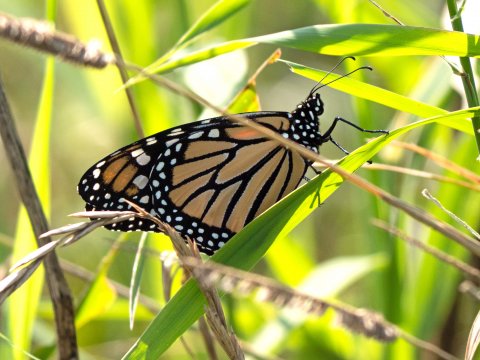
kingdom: Animalia
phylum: Arthropoda
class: Insecta
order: Lepidoptera
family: Nymphalidae
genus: Danaus
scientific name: Danaus plexippus
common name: Monarch
